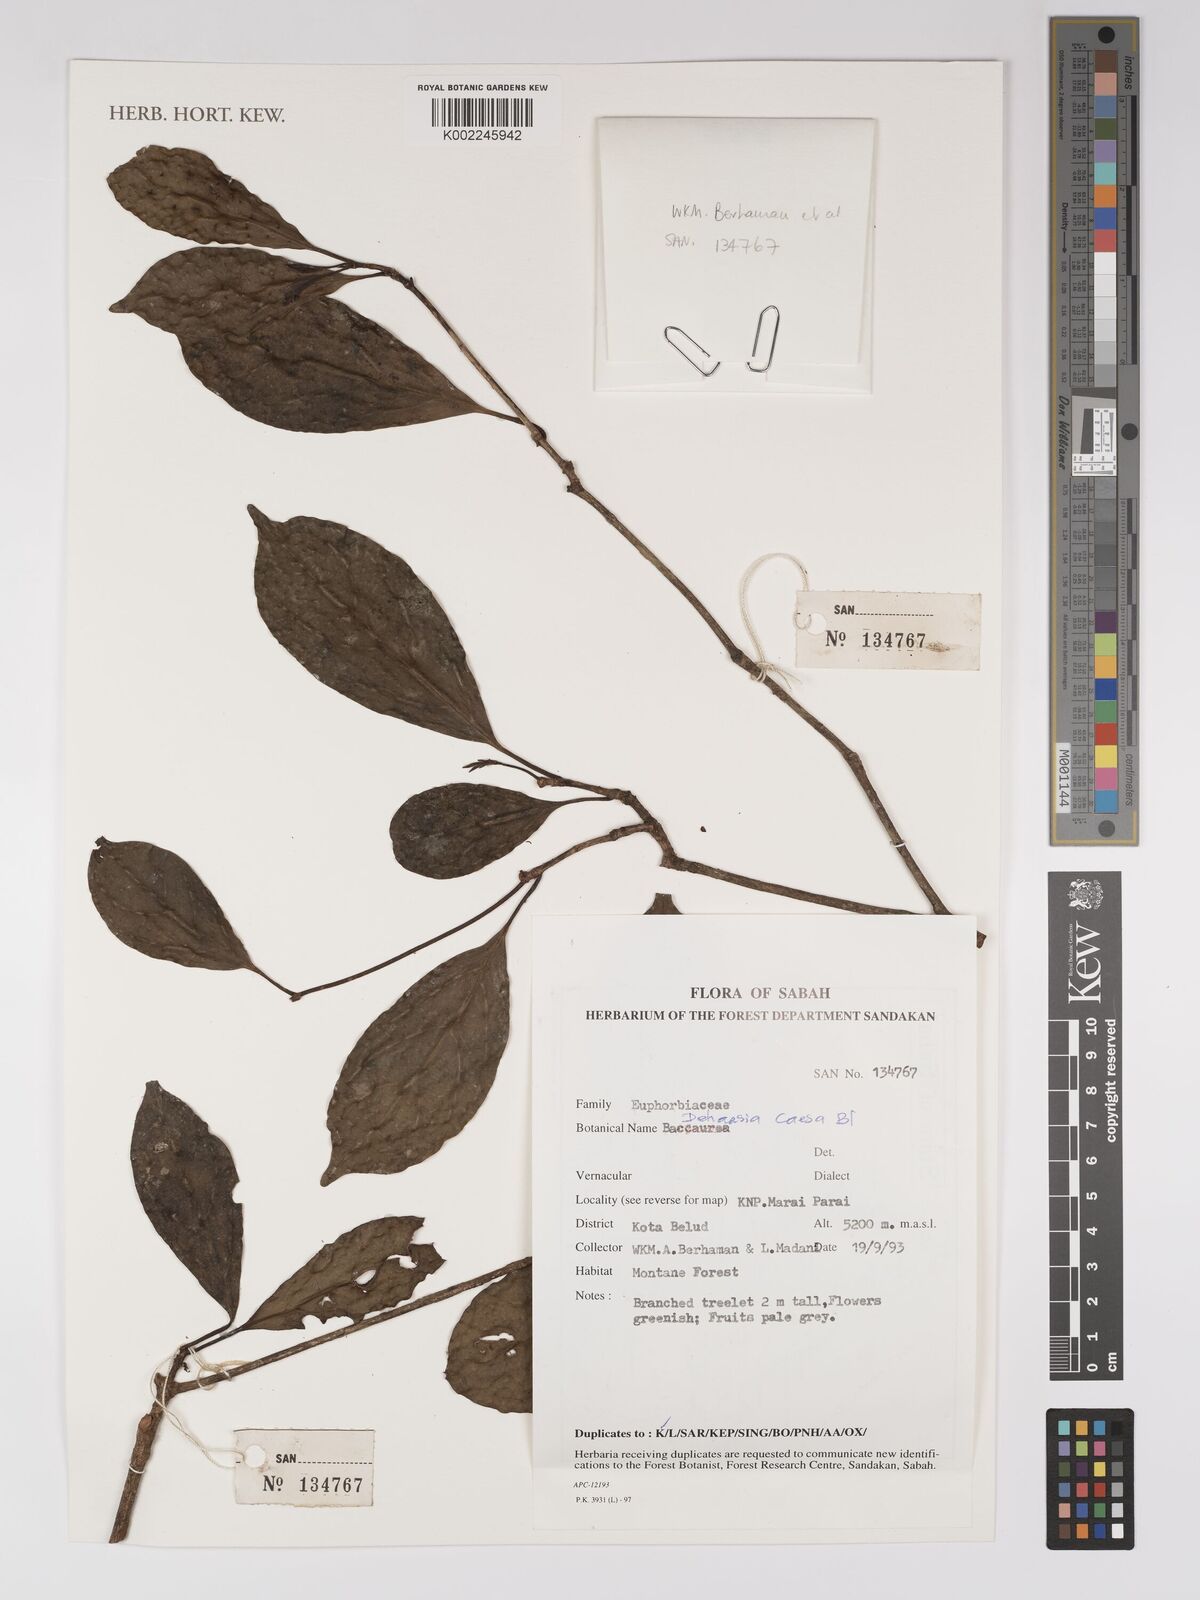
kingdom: Plantae
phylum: Tracheophyta
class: Magnoliopsida
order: Malpighiales
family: Euphorbiaceae
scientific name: Euphorbiaceae
